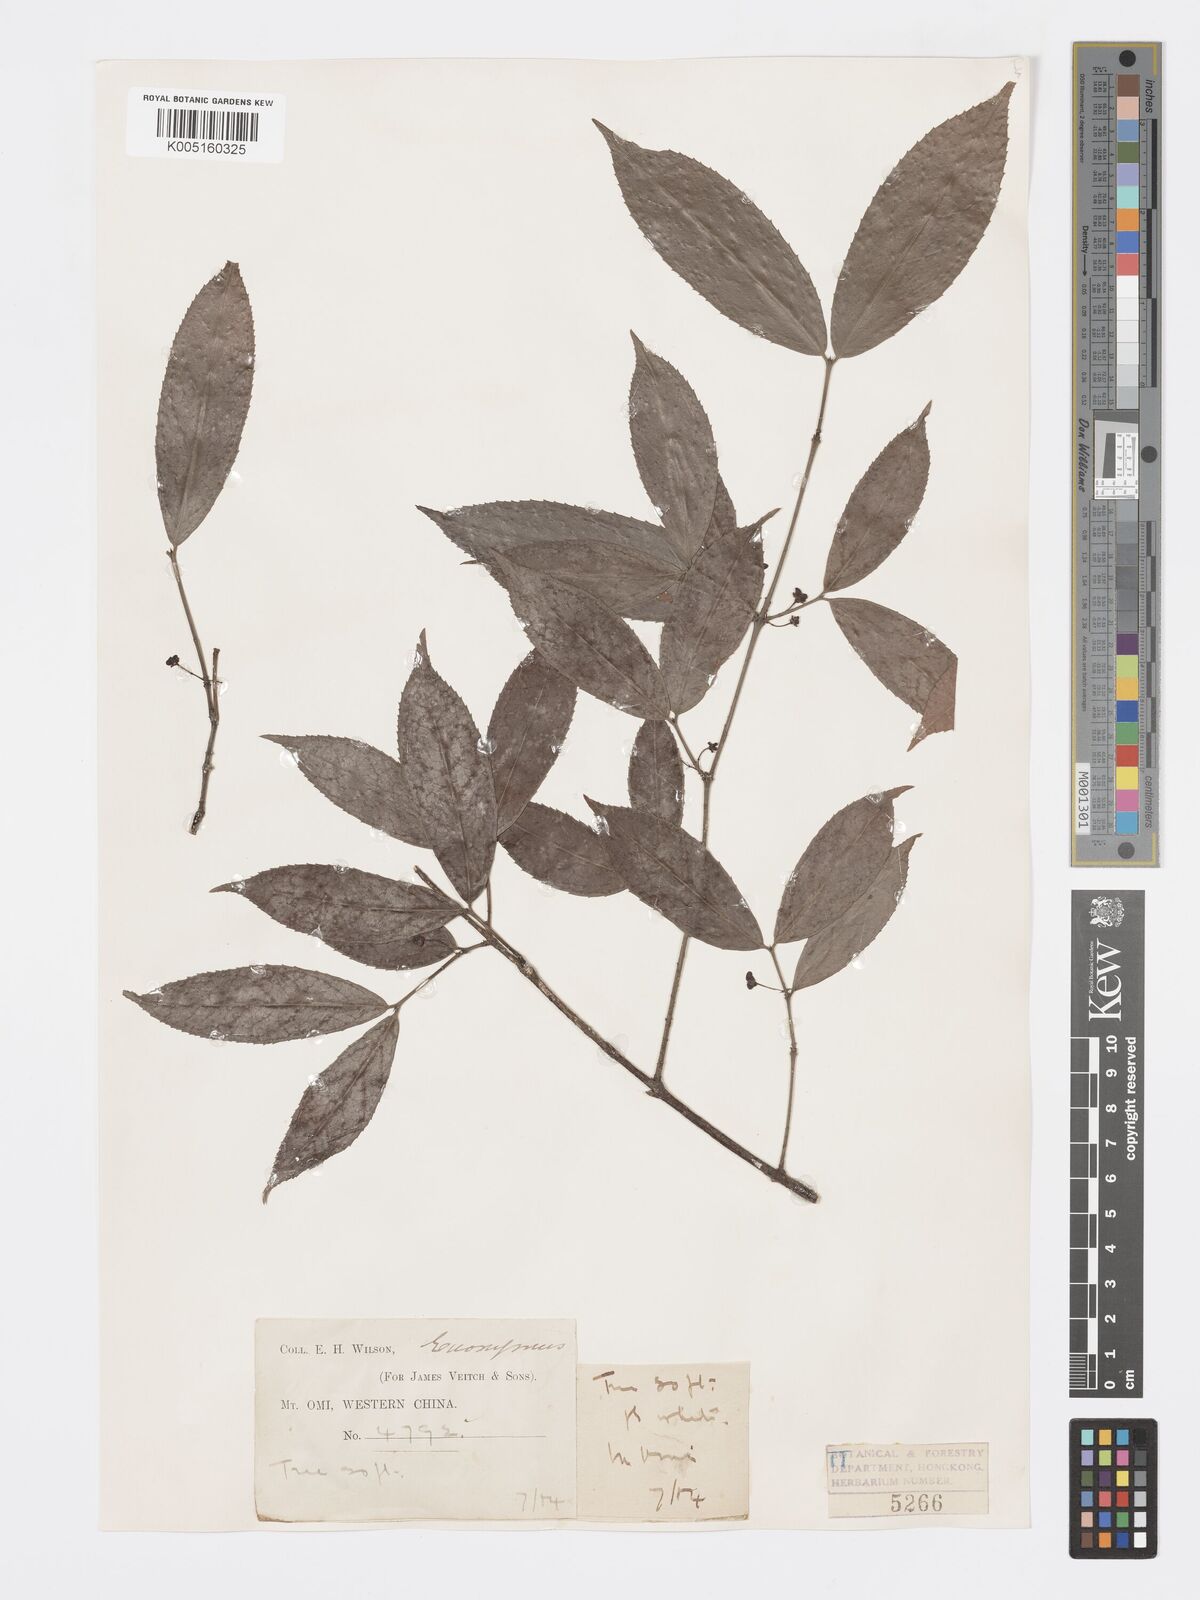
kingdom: Plantae
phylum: Tracheophyta
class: Magnoliopsida
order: Celastrales
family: Celastraceae
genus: Euonymus
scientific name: Euonymus
